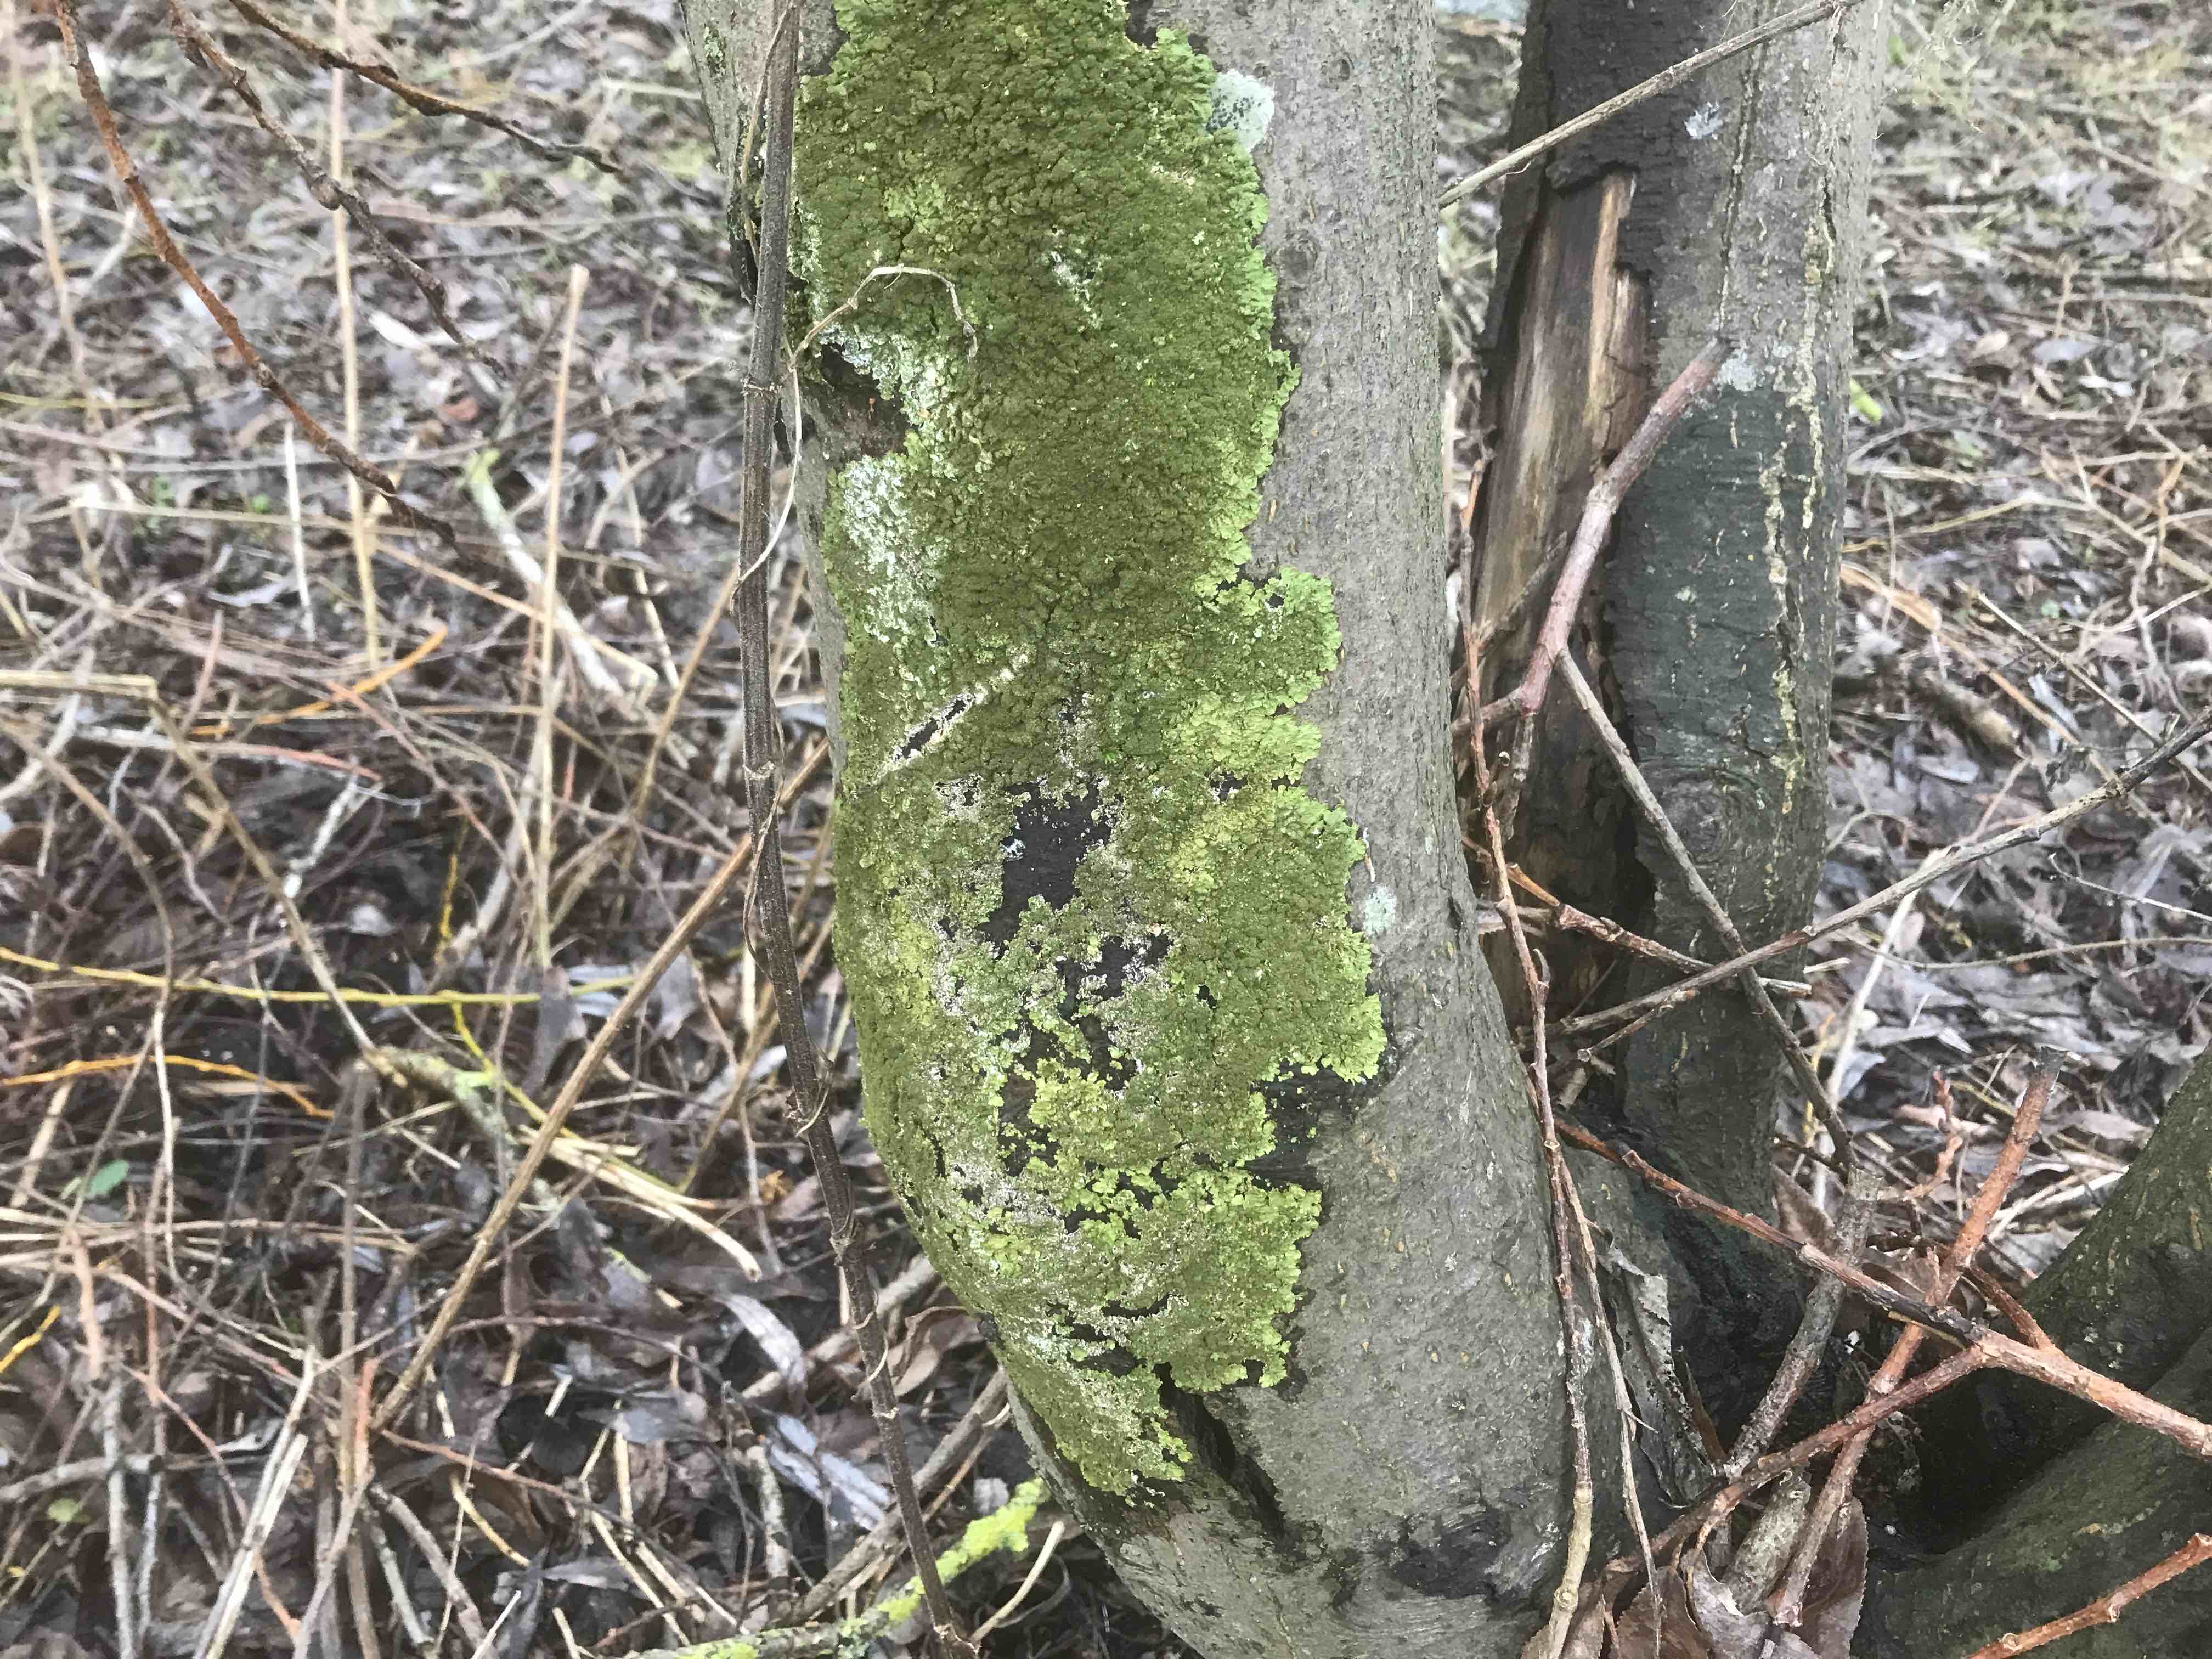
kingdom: Fungi
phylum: Ascomycota
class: Lecanoromycetes
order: Lecanorales
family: Parmeliaceae
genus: Melanelixia
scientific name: Melanelixia glabratula
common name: glinsende skållav
